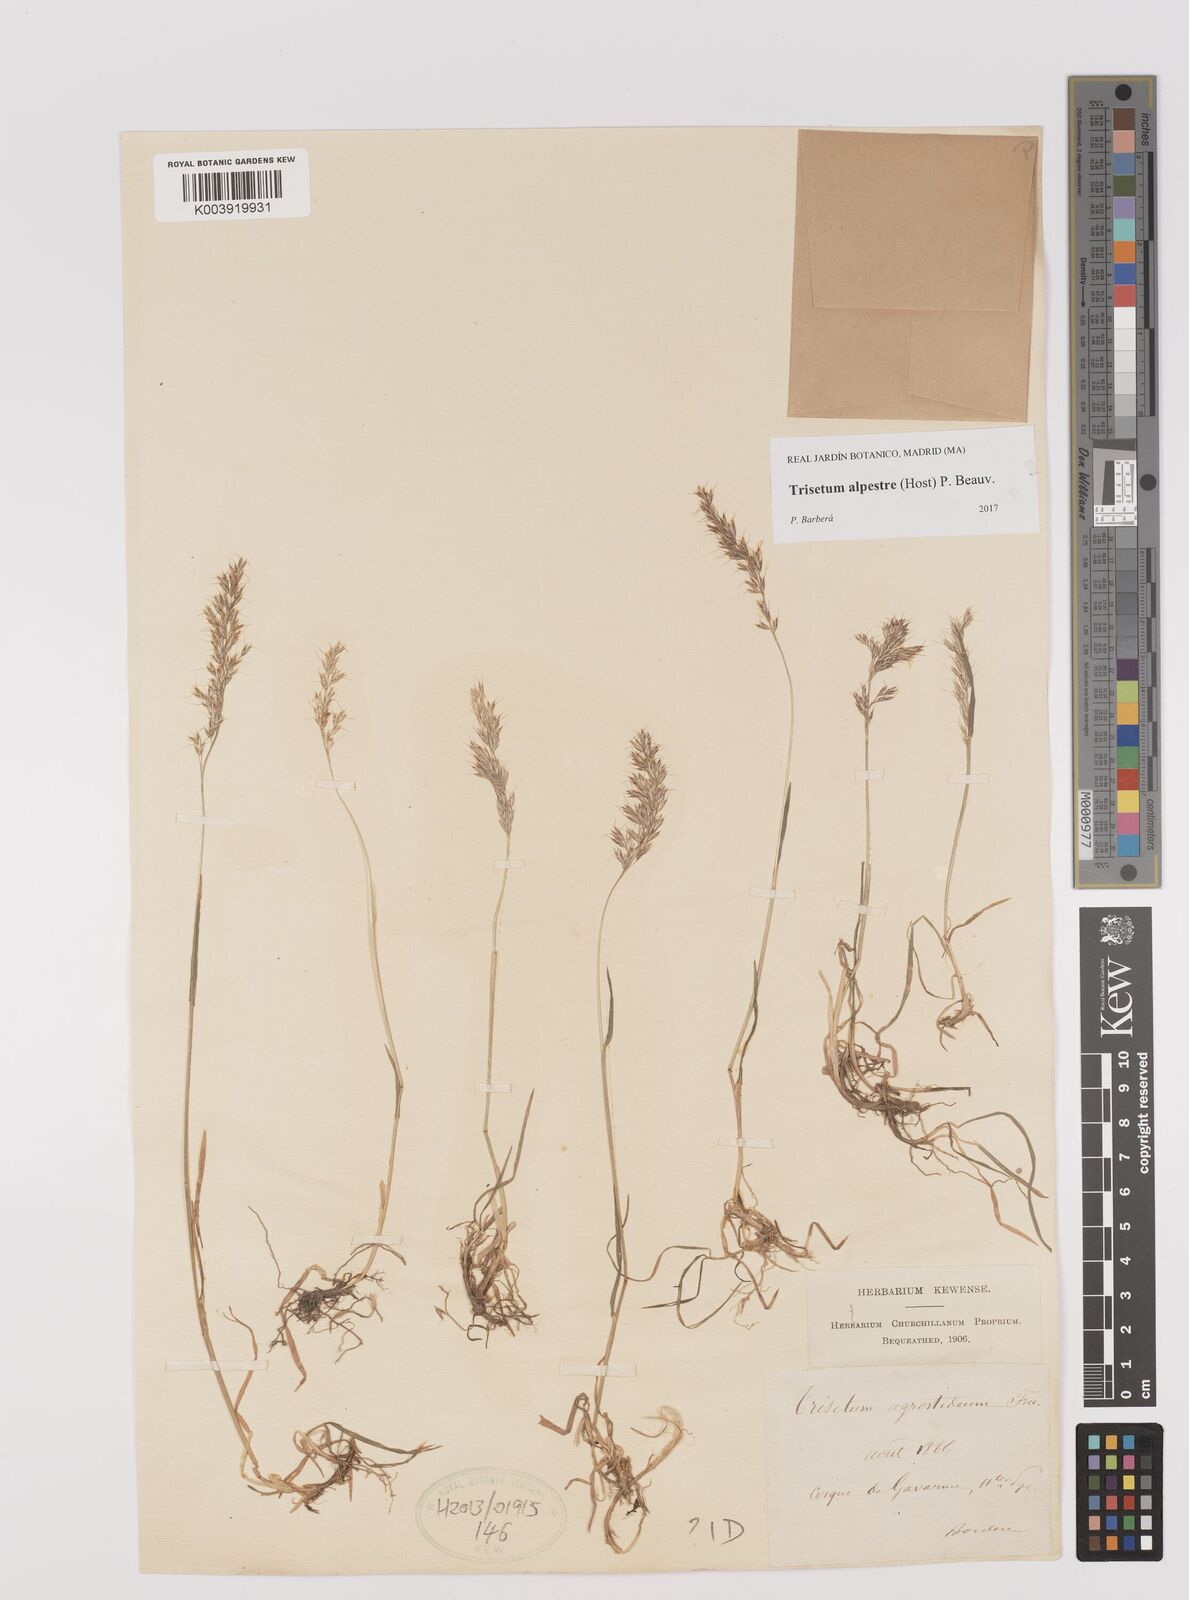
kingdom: Plantae
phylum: Tracheophyta
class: Liliopsida
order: Poales
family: Poaceae
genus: Trisetum
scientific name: Trisetum alpestre
